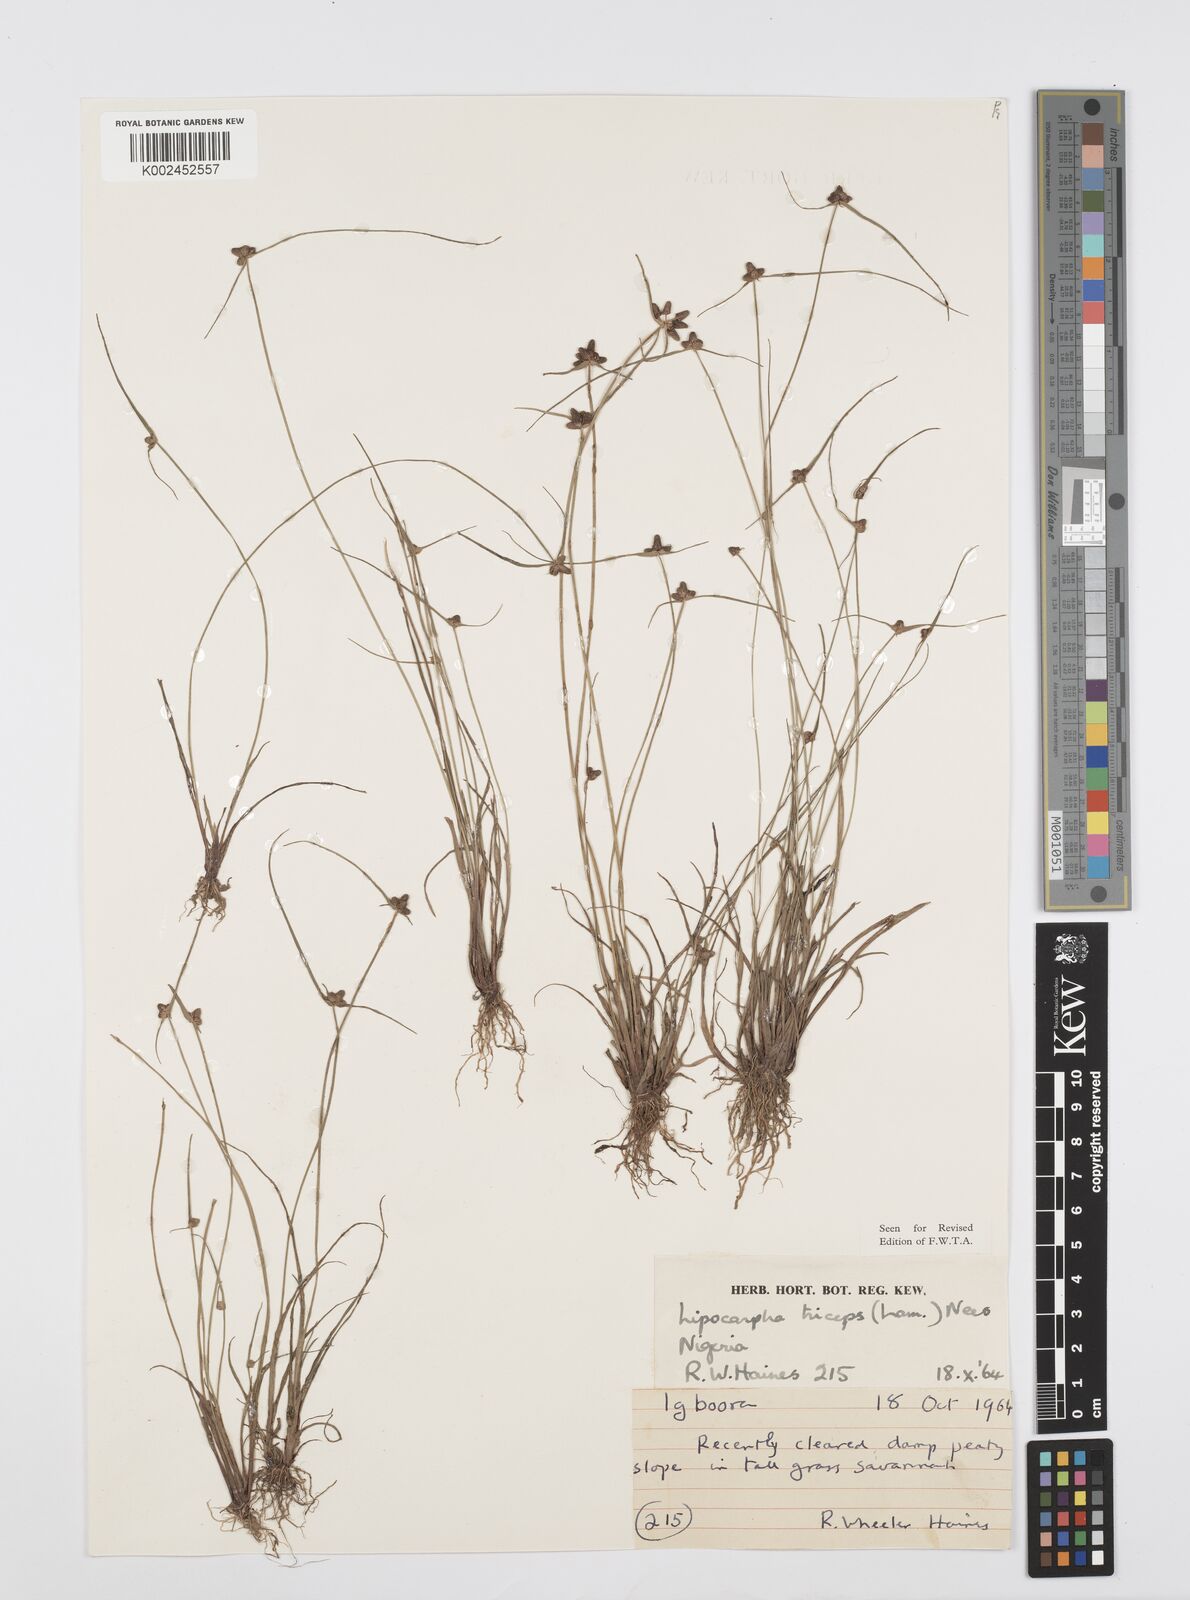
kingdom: Plantae
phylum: Tracheophyta
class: Liliopsida
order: Poales
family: Cyperaceae
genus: Cyperus
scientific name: Cyperus filiformis
